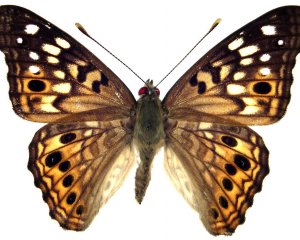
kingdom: Animalia
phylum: Arthropoda
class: Insecta
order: Lepidoptera
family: Nymphalidae
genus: Asterocampa
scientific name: Asterocampa celtis
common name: Hackberry Emperor
